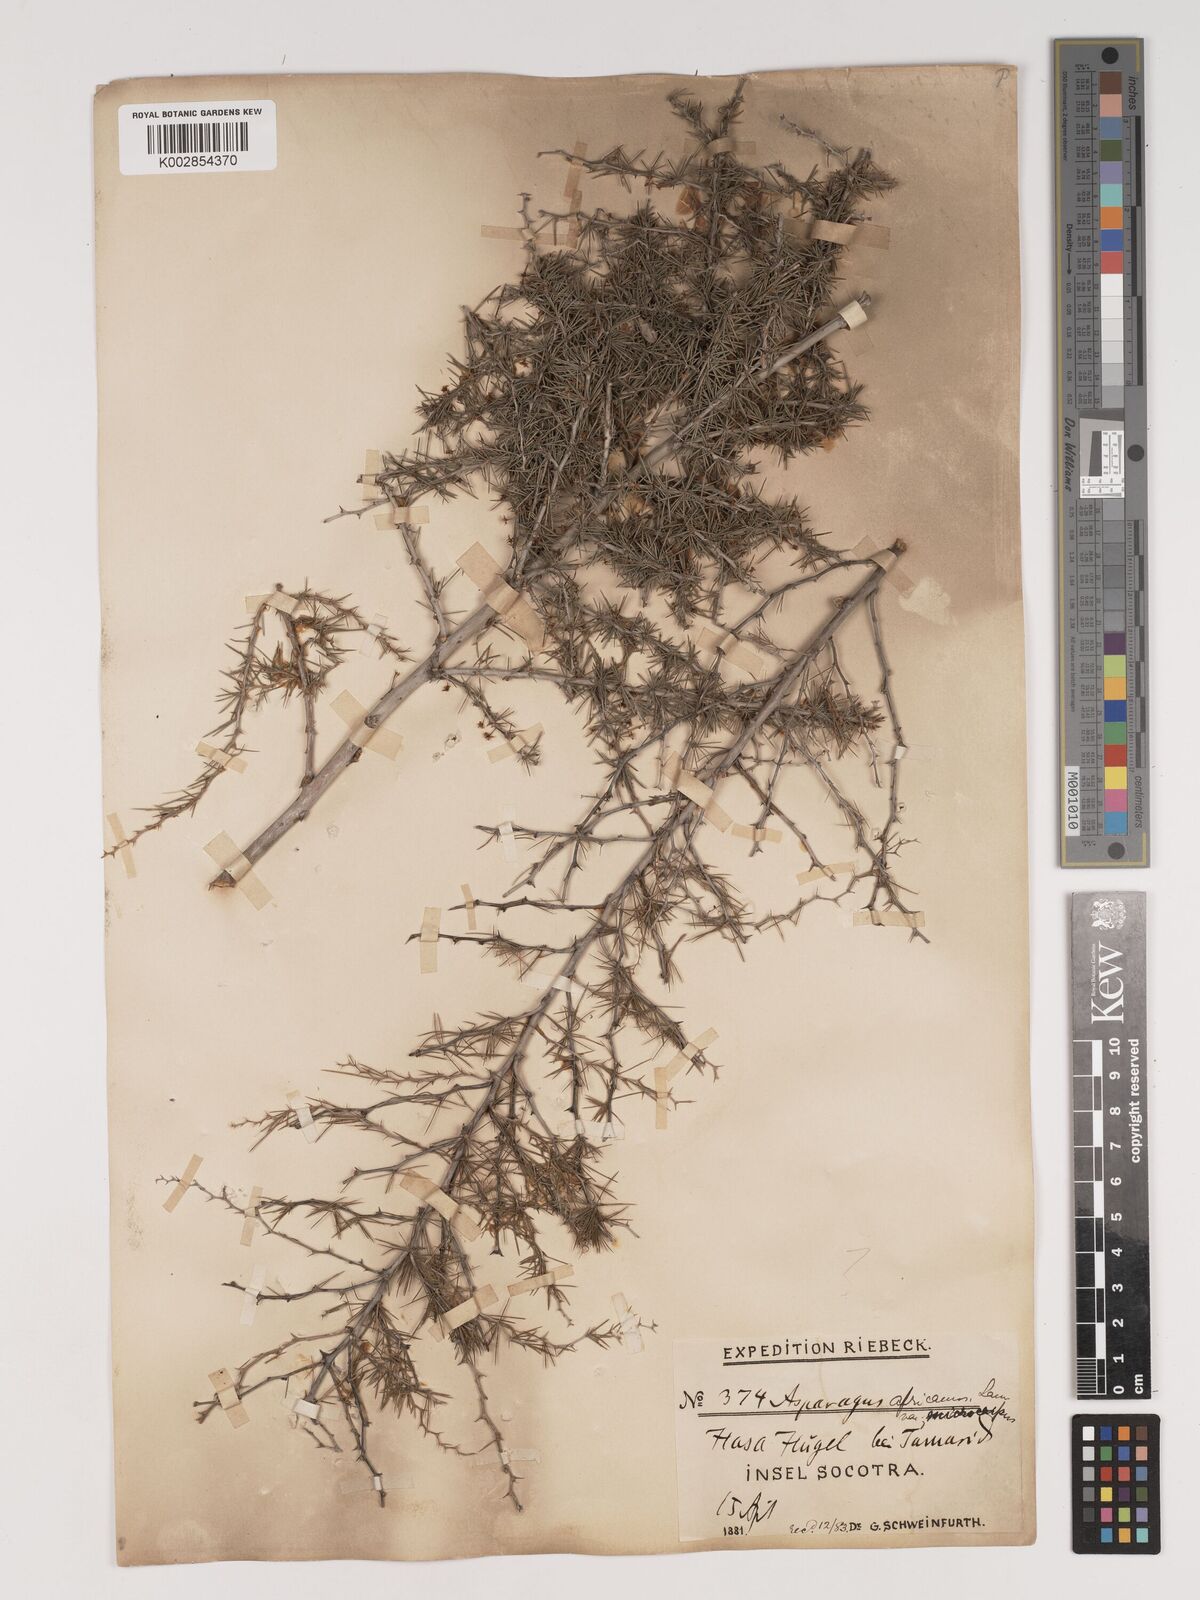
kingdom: Plantae
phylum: Tracheophyta
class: Liliopsida
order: Asparagales
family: Asparagaceae
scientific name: Asparagaceae
